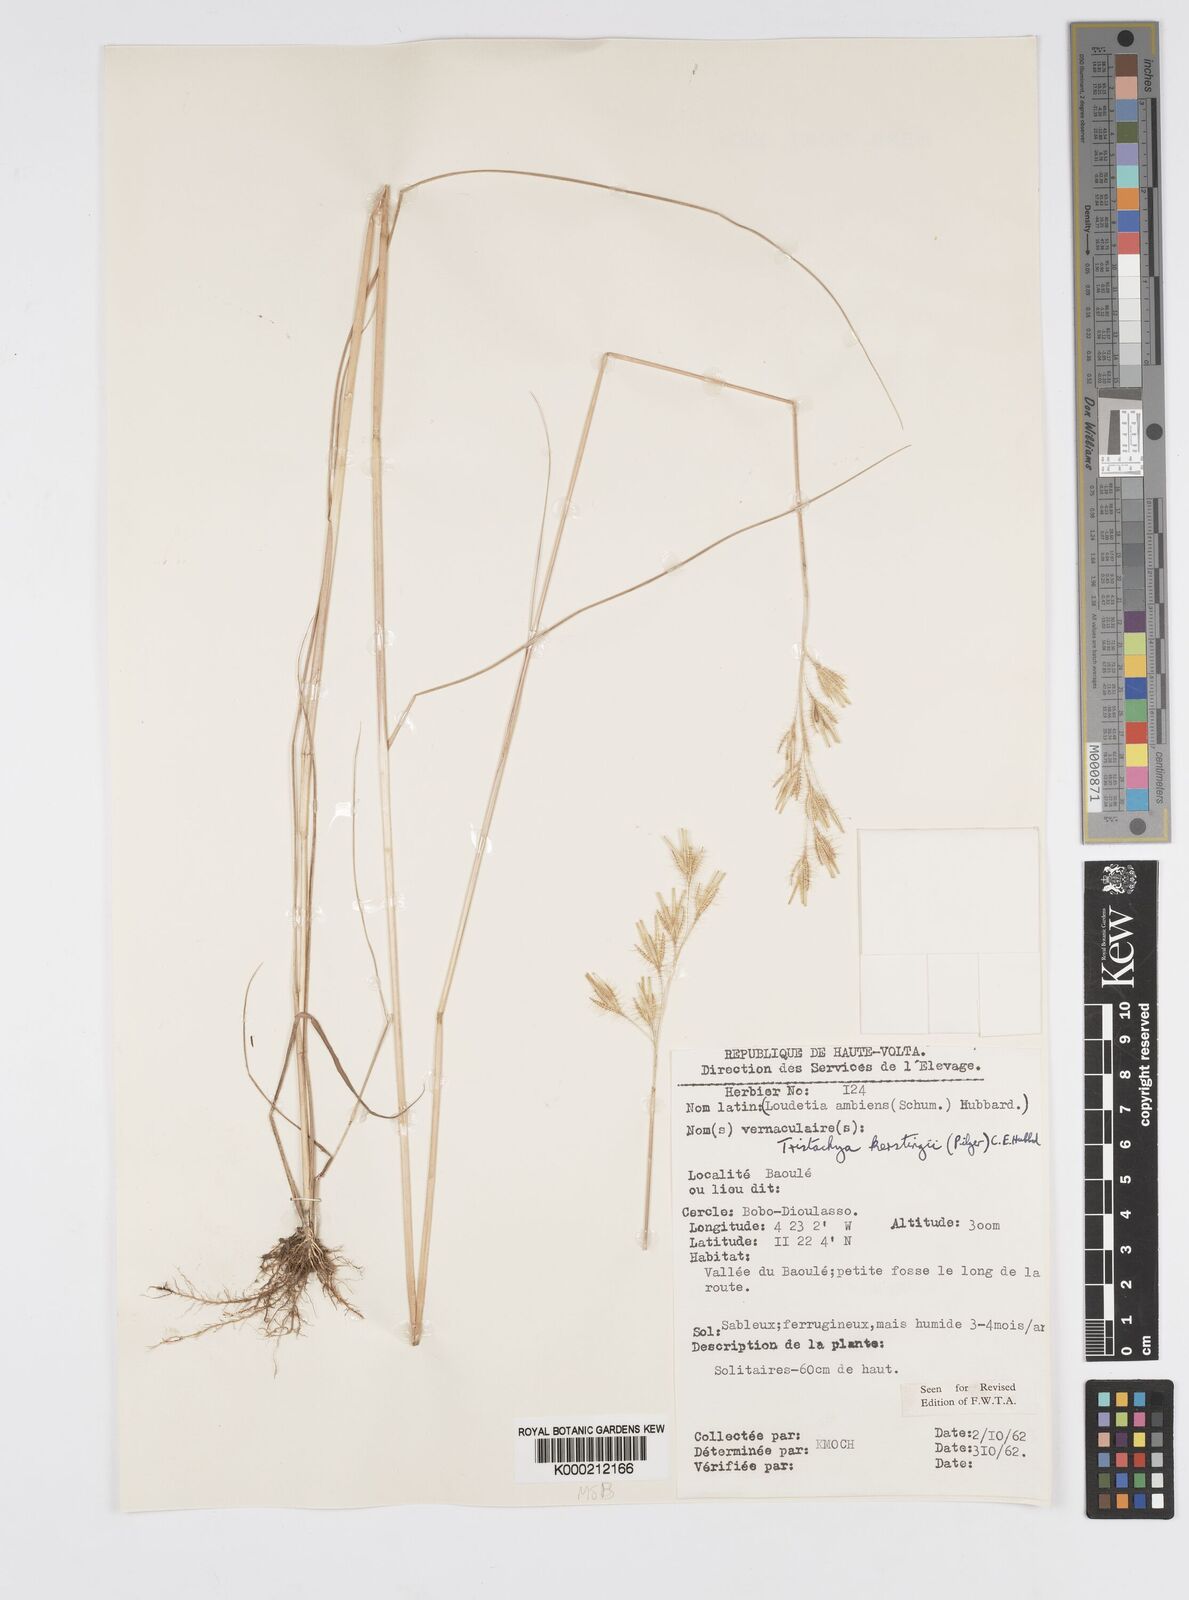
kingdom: Plantae
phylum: Tracheophyta
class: Liliopsida
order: Poales
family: Poaceae
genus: Loudetiopsis
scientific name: Loudetiopsis kerstingii
